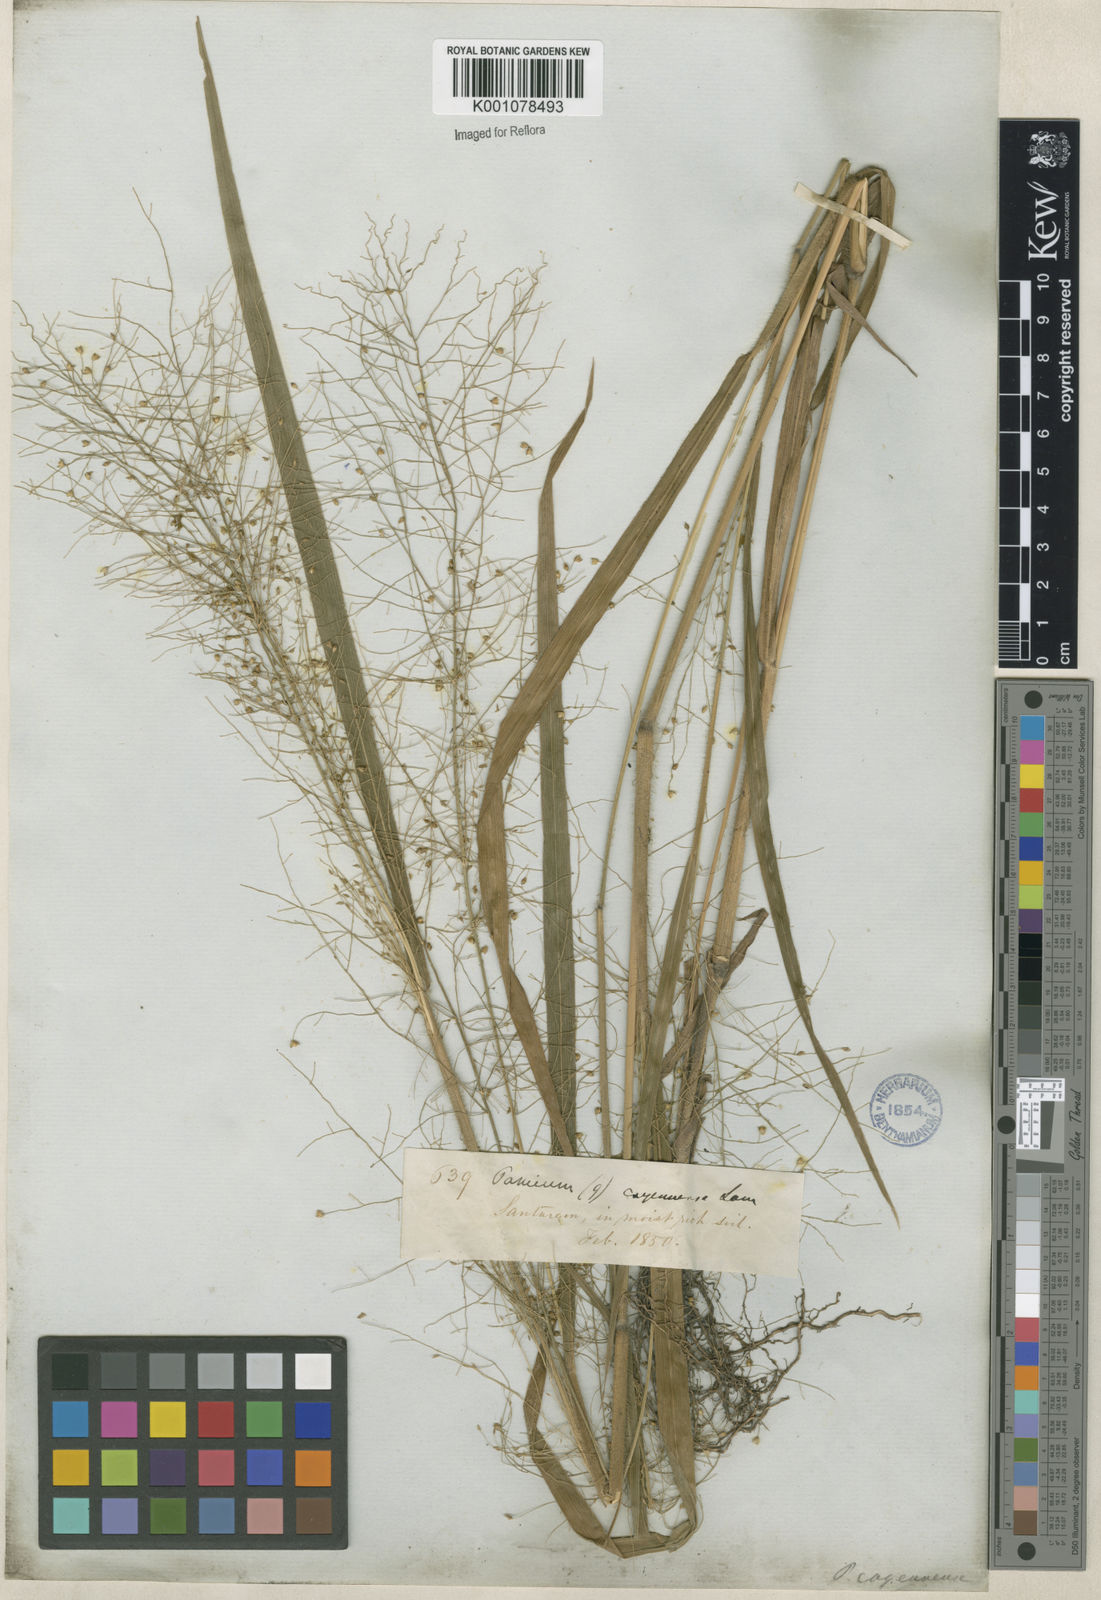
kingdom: Plantae
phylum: Tracheophyta
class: Liliopsida
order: Poales
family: Poaceae
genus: Panicum
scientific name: Panicum rudgei
